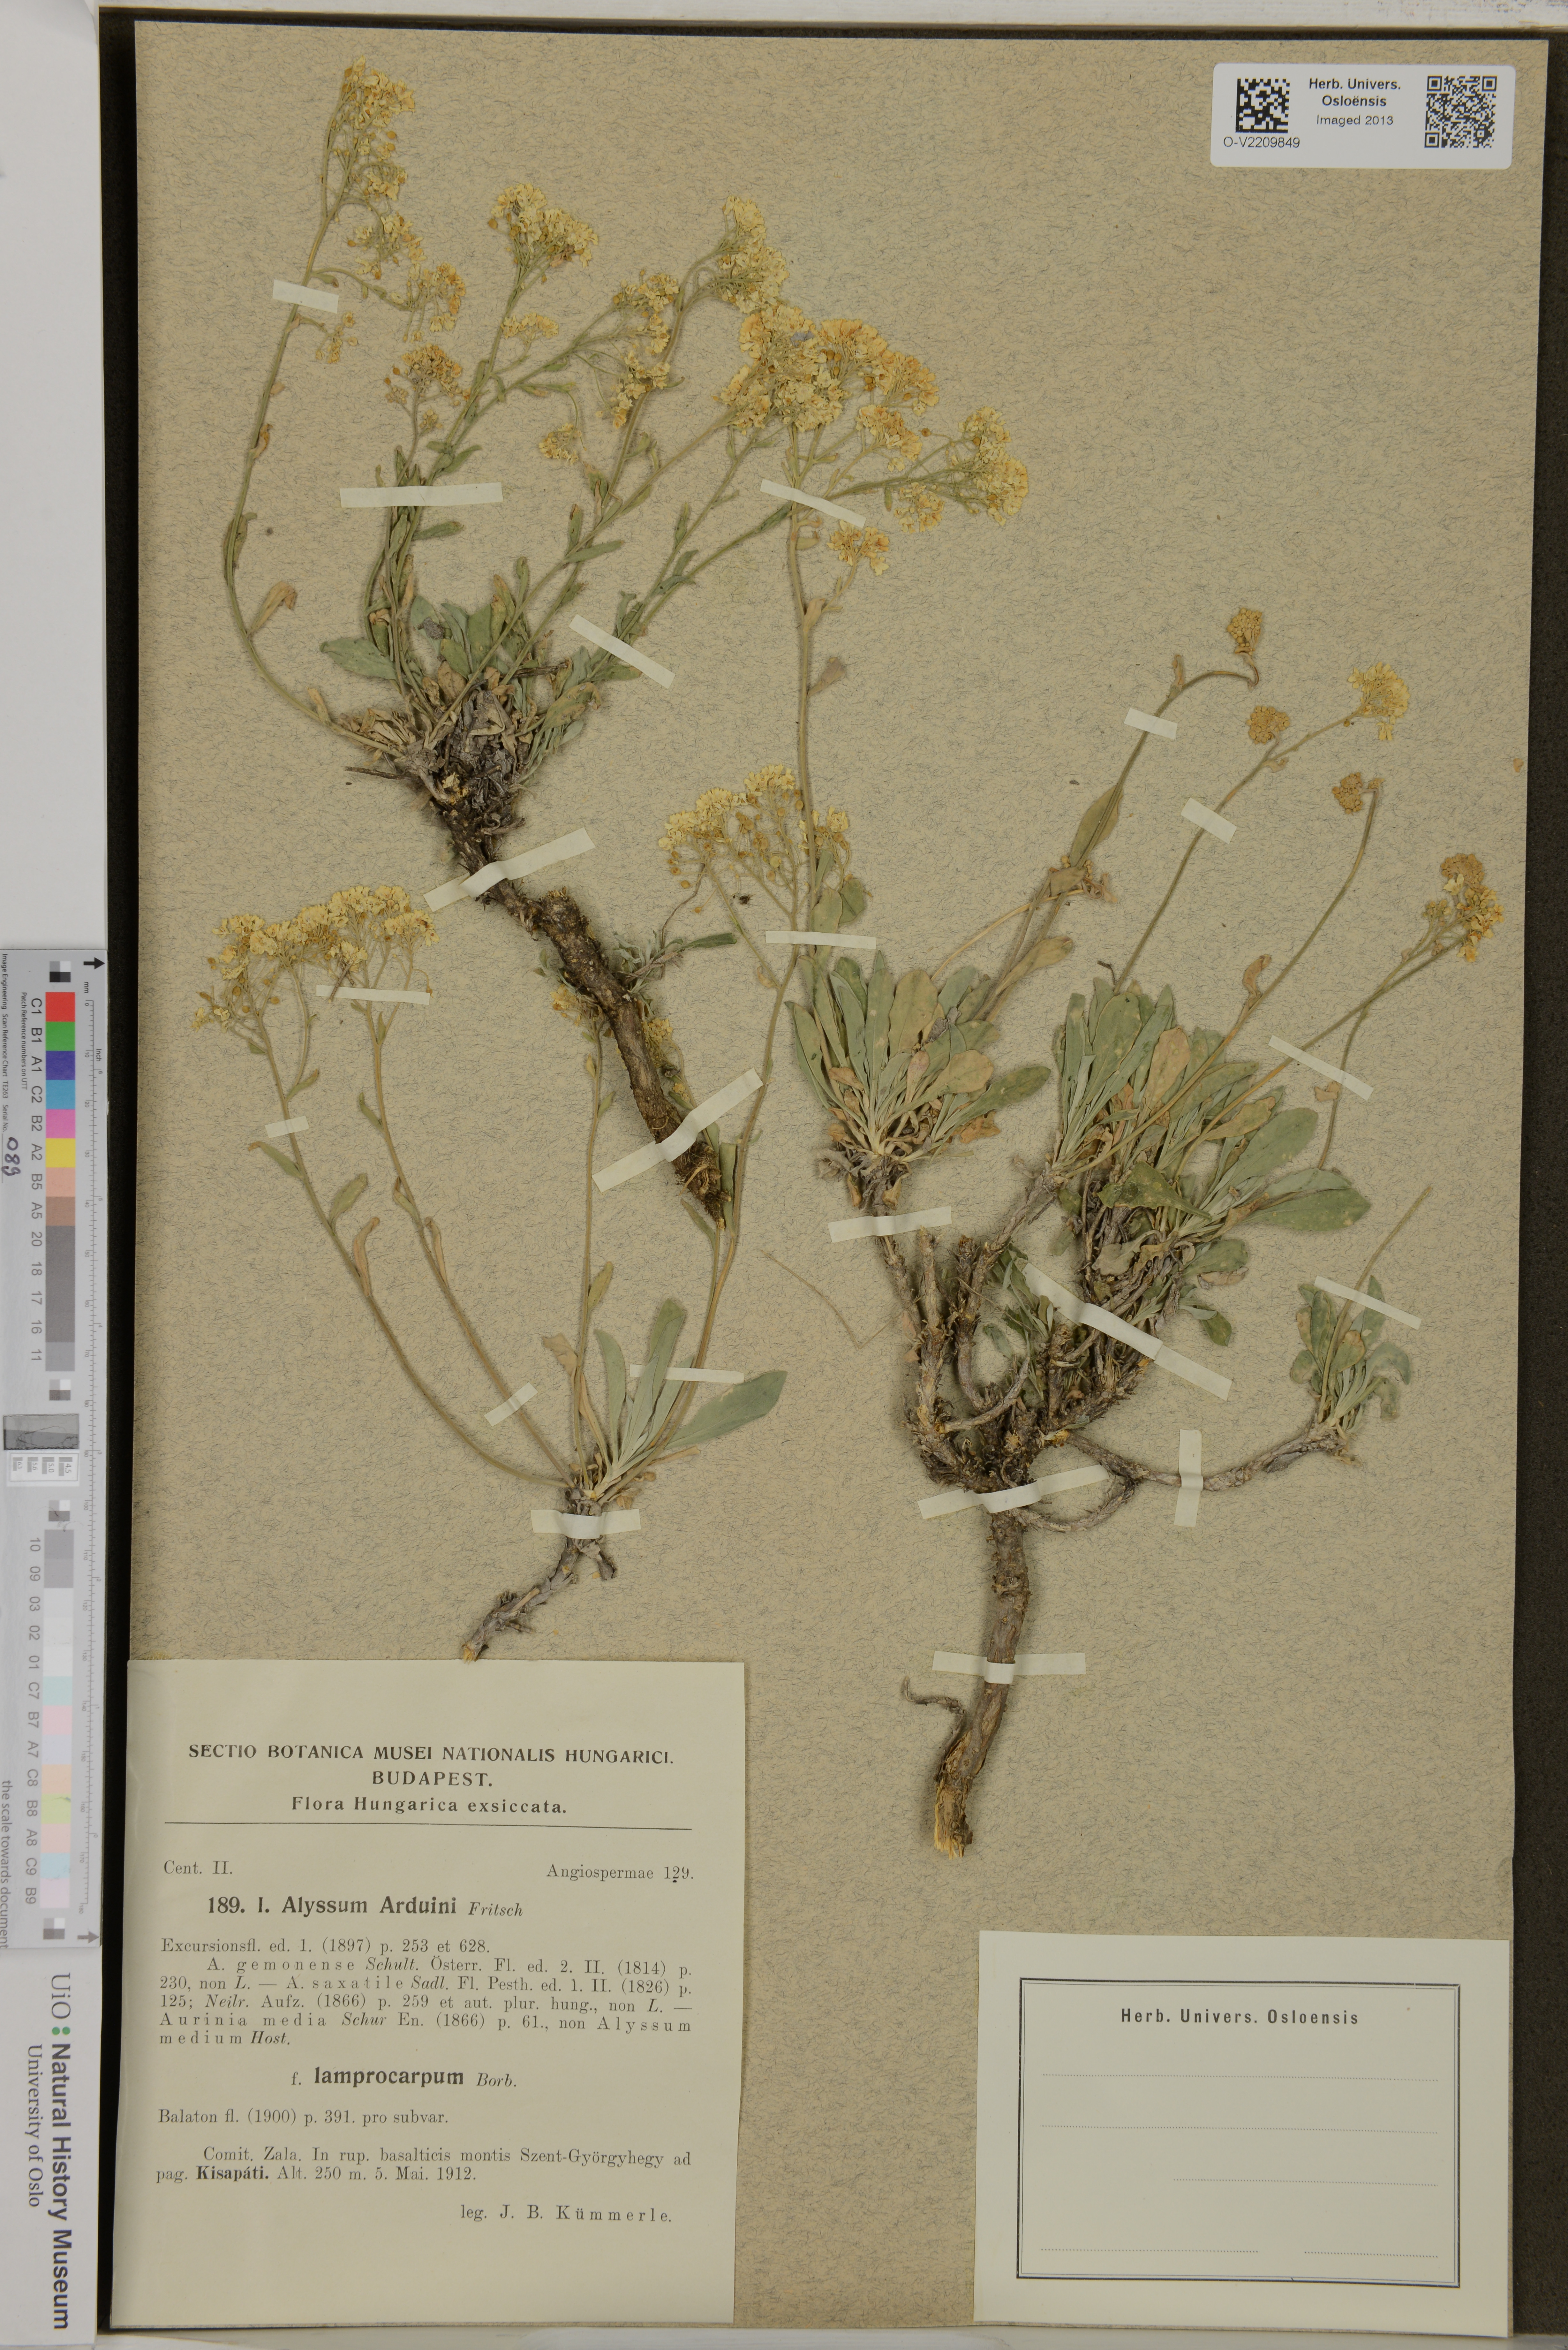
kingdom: Plantae
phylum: Tracheophyta
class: Magnoliopsida
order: Brassicales
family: Brassicaceae
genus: Aurinia
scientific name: Aurinia saxatilis
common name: Golden-tuft alyssum
